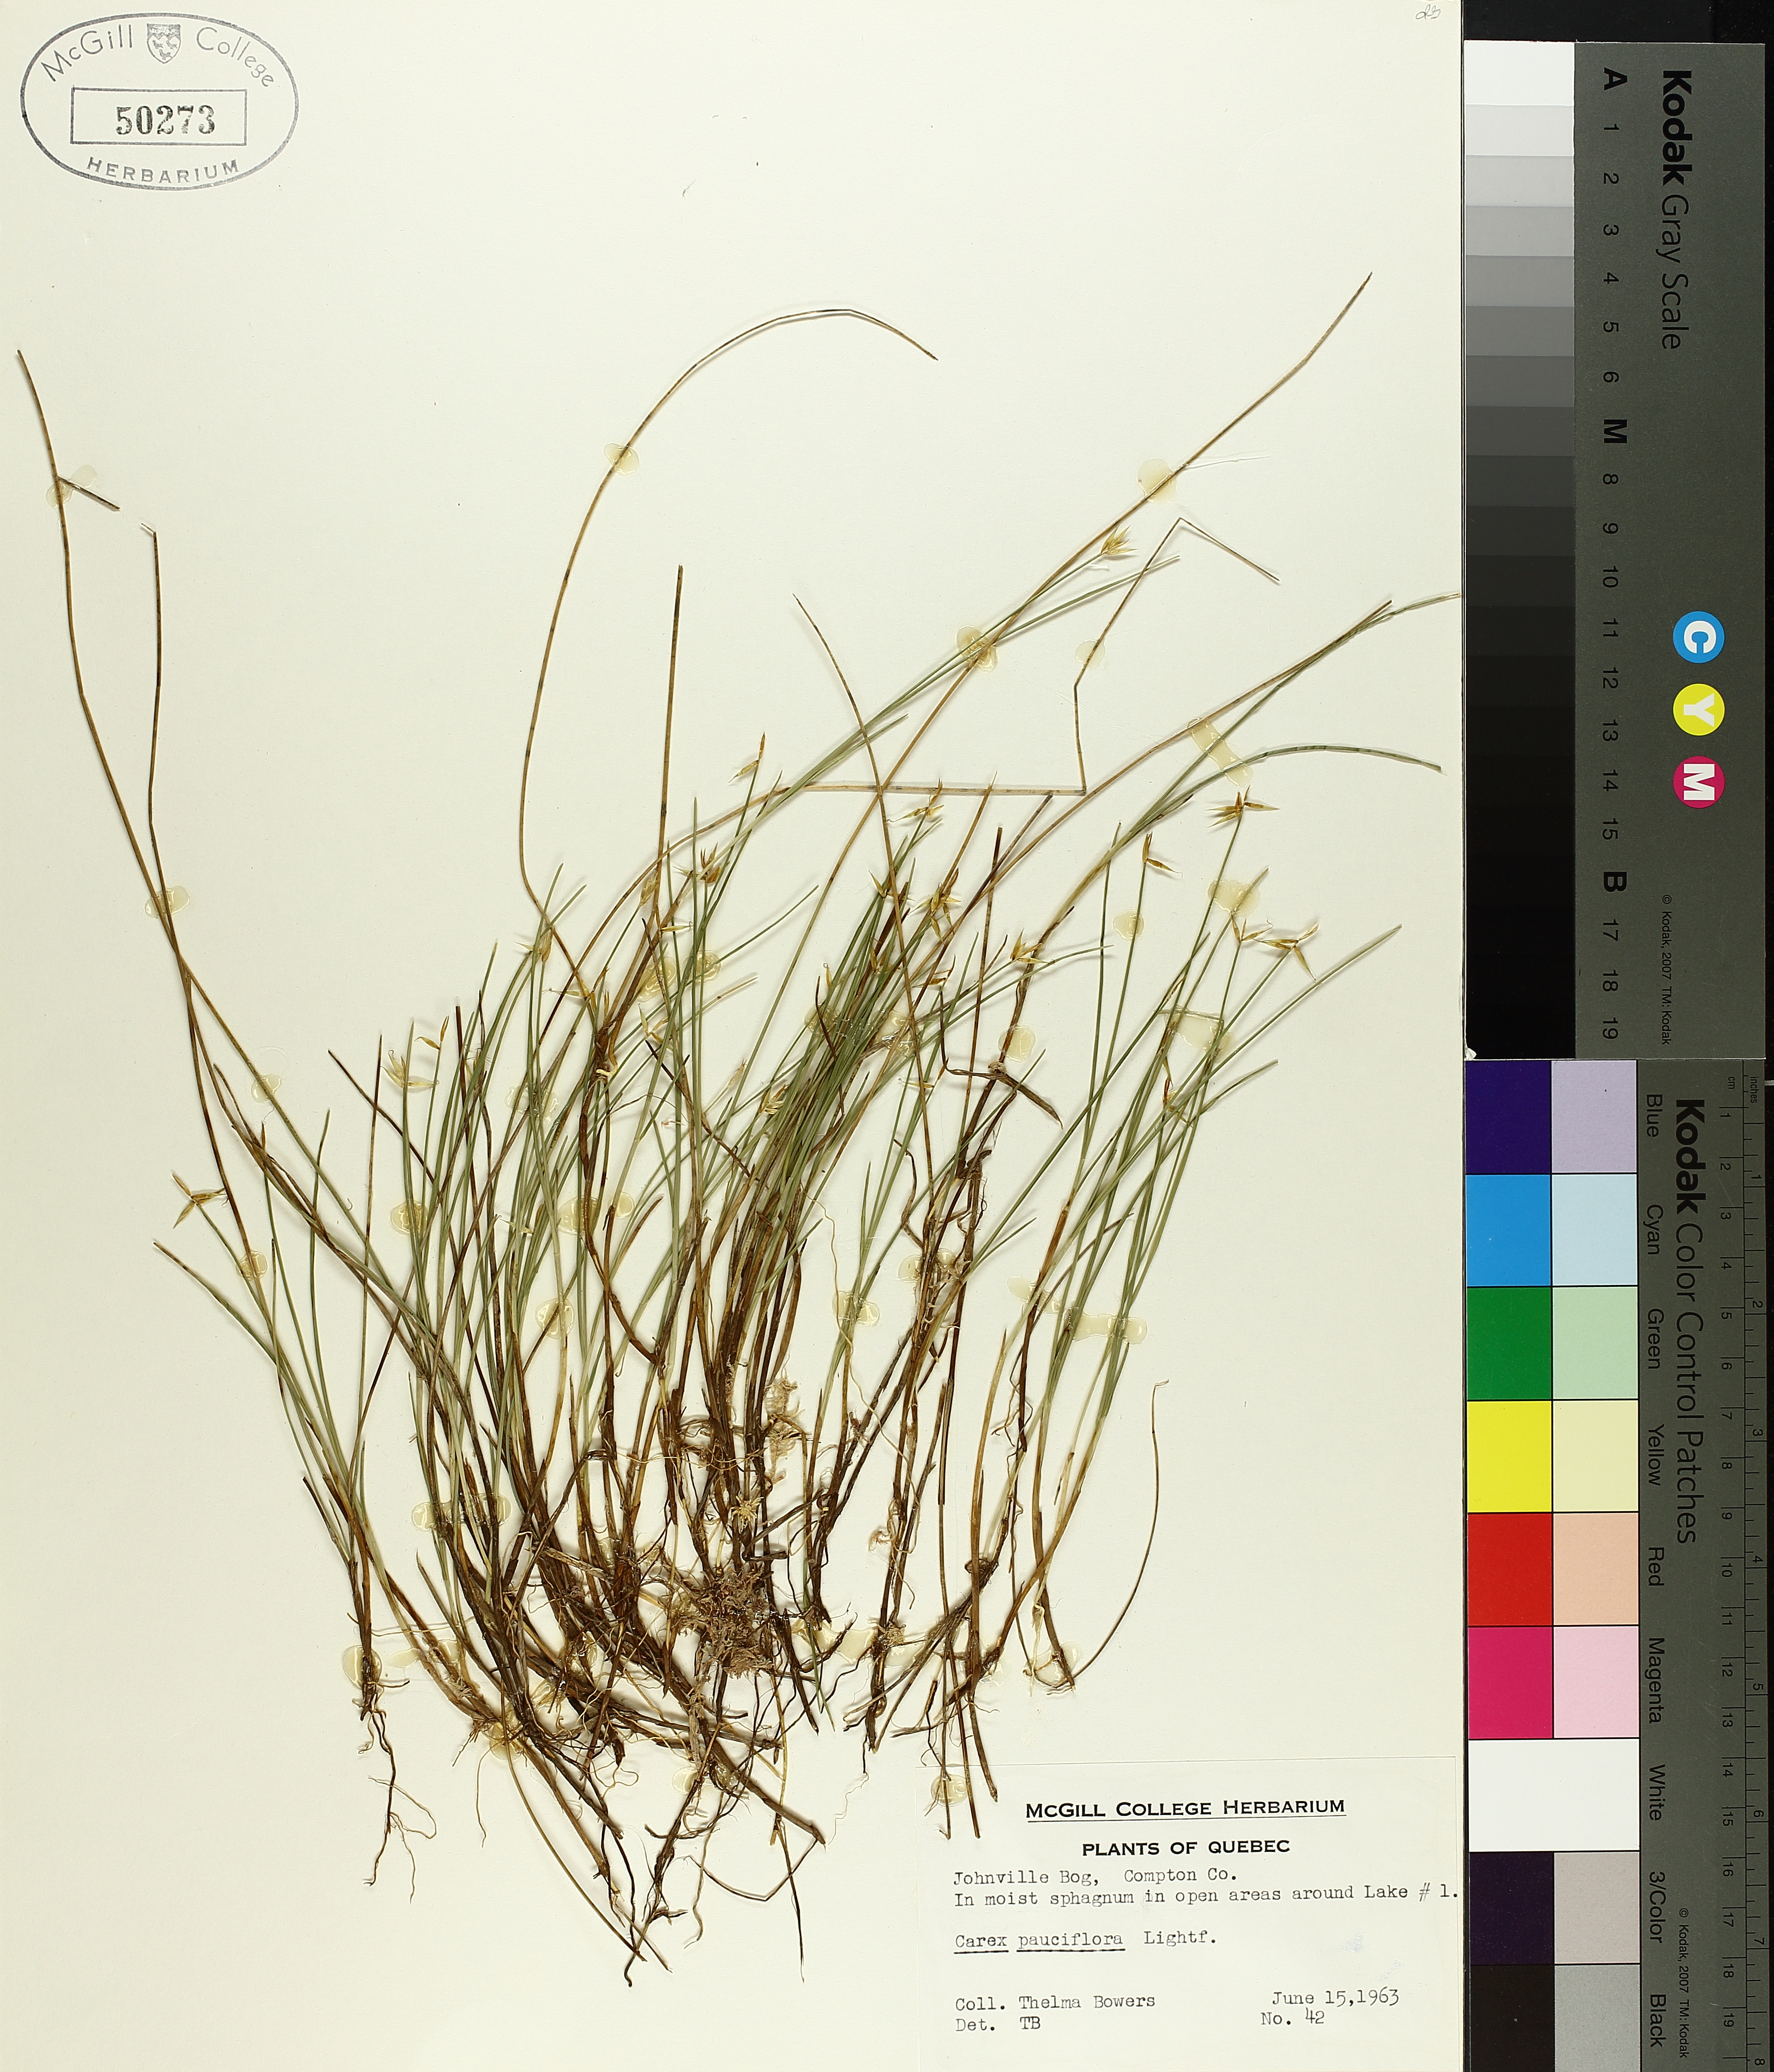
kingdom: Plantae
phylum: Tracheophyta
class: Liliopsida
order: Poales
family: Cyperaceae
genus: Carex
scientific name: Carex pauciflora
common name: Few-flowered sedge
